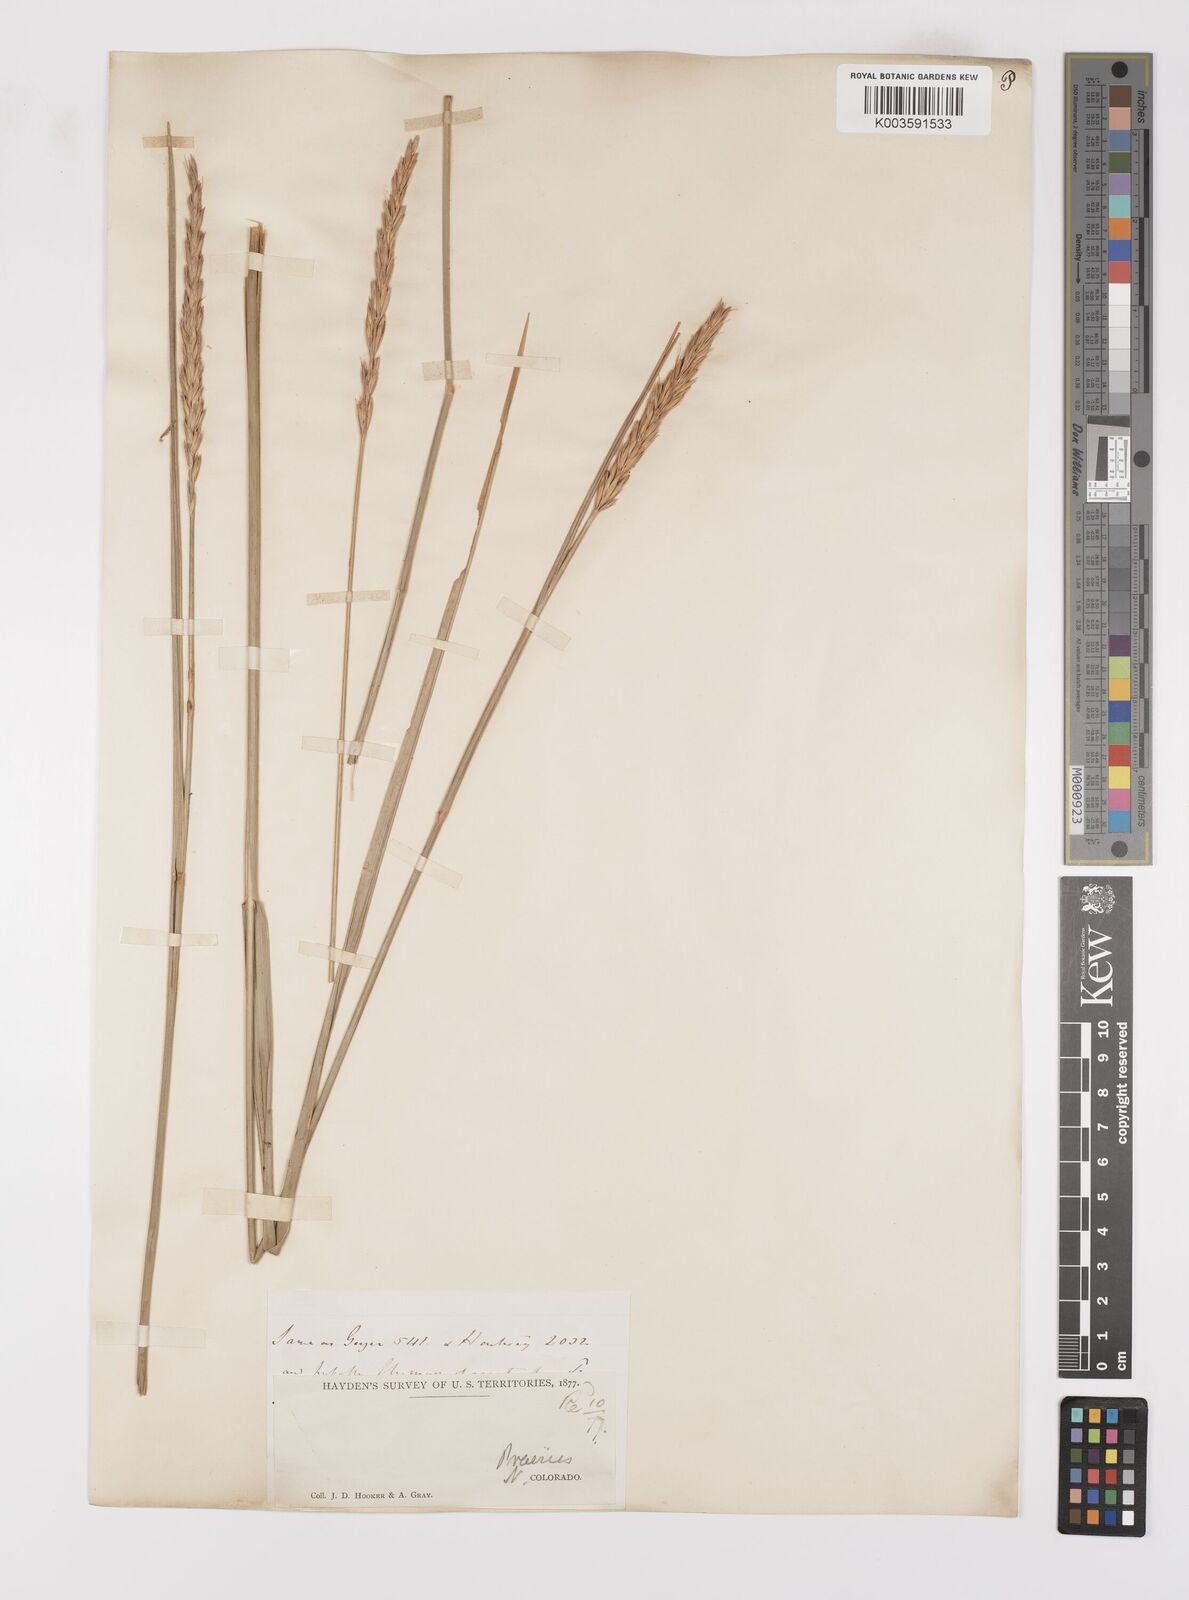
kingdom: Plantae
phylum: Tracheophyta
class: Liliopsida
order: Poales
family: Poaceae
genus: Leymus
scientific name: Leymus condensatus
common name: Giant wild rye
